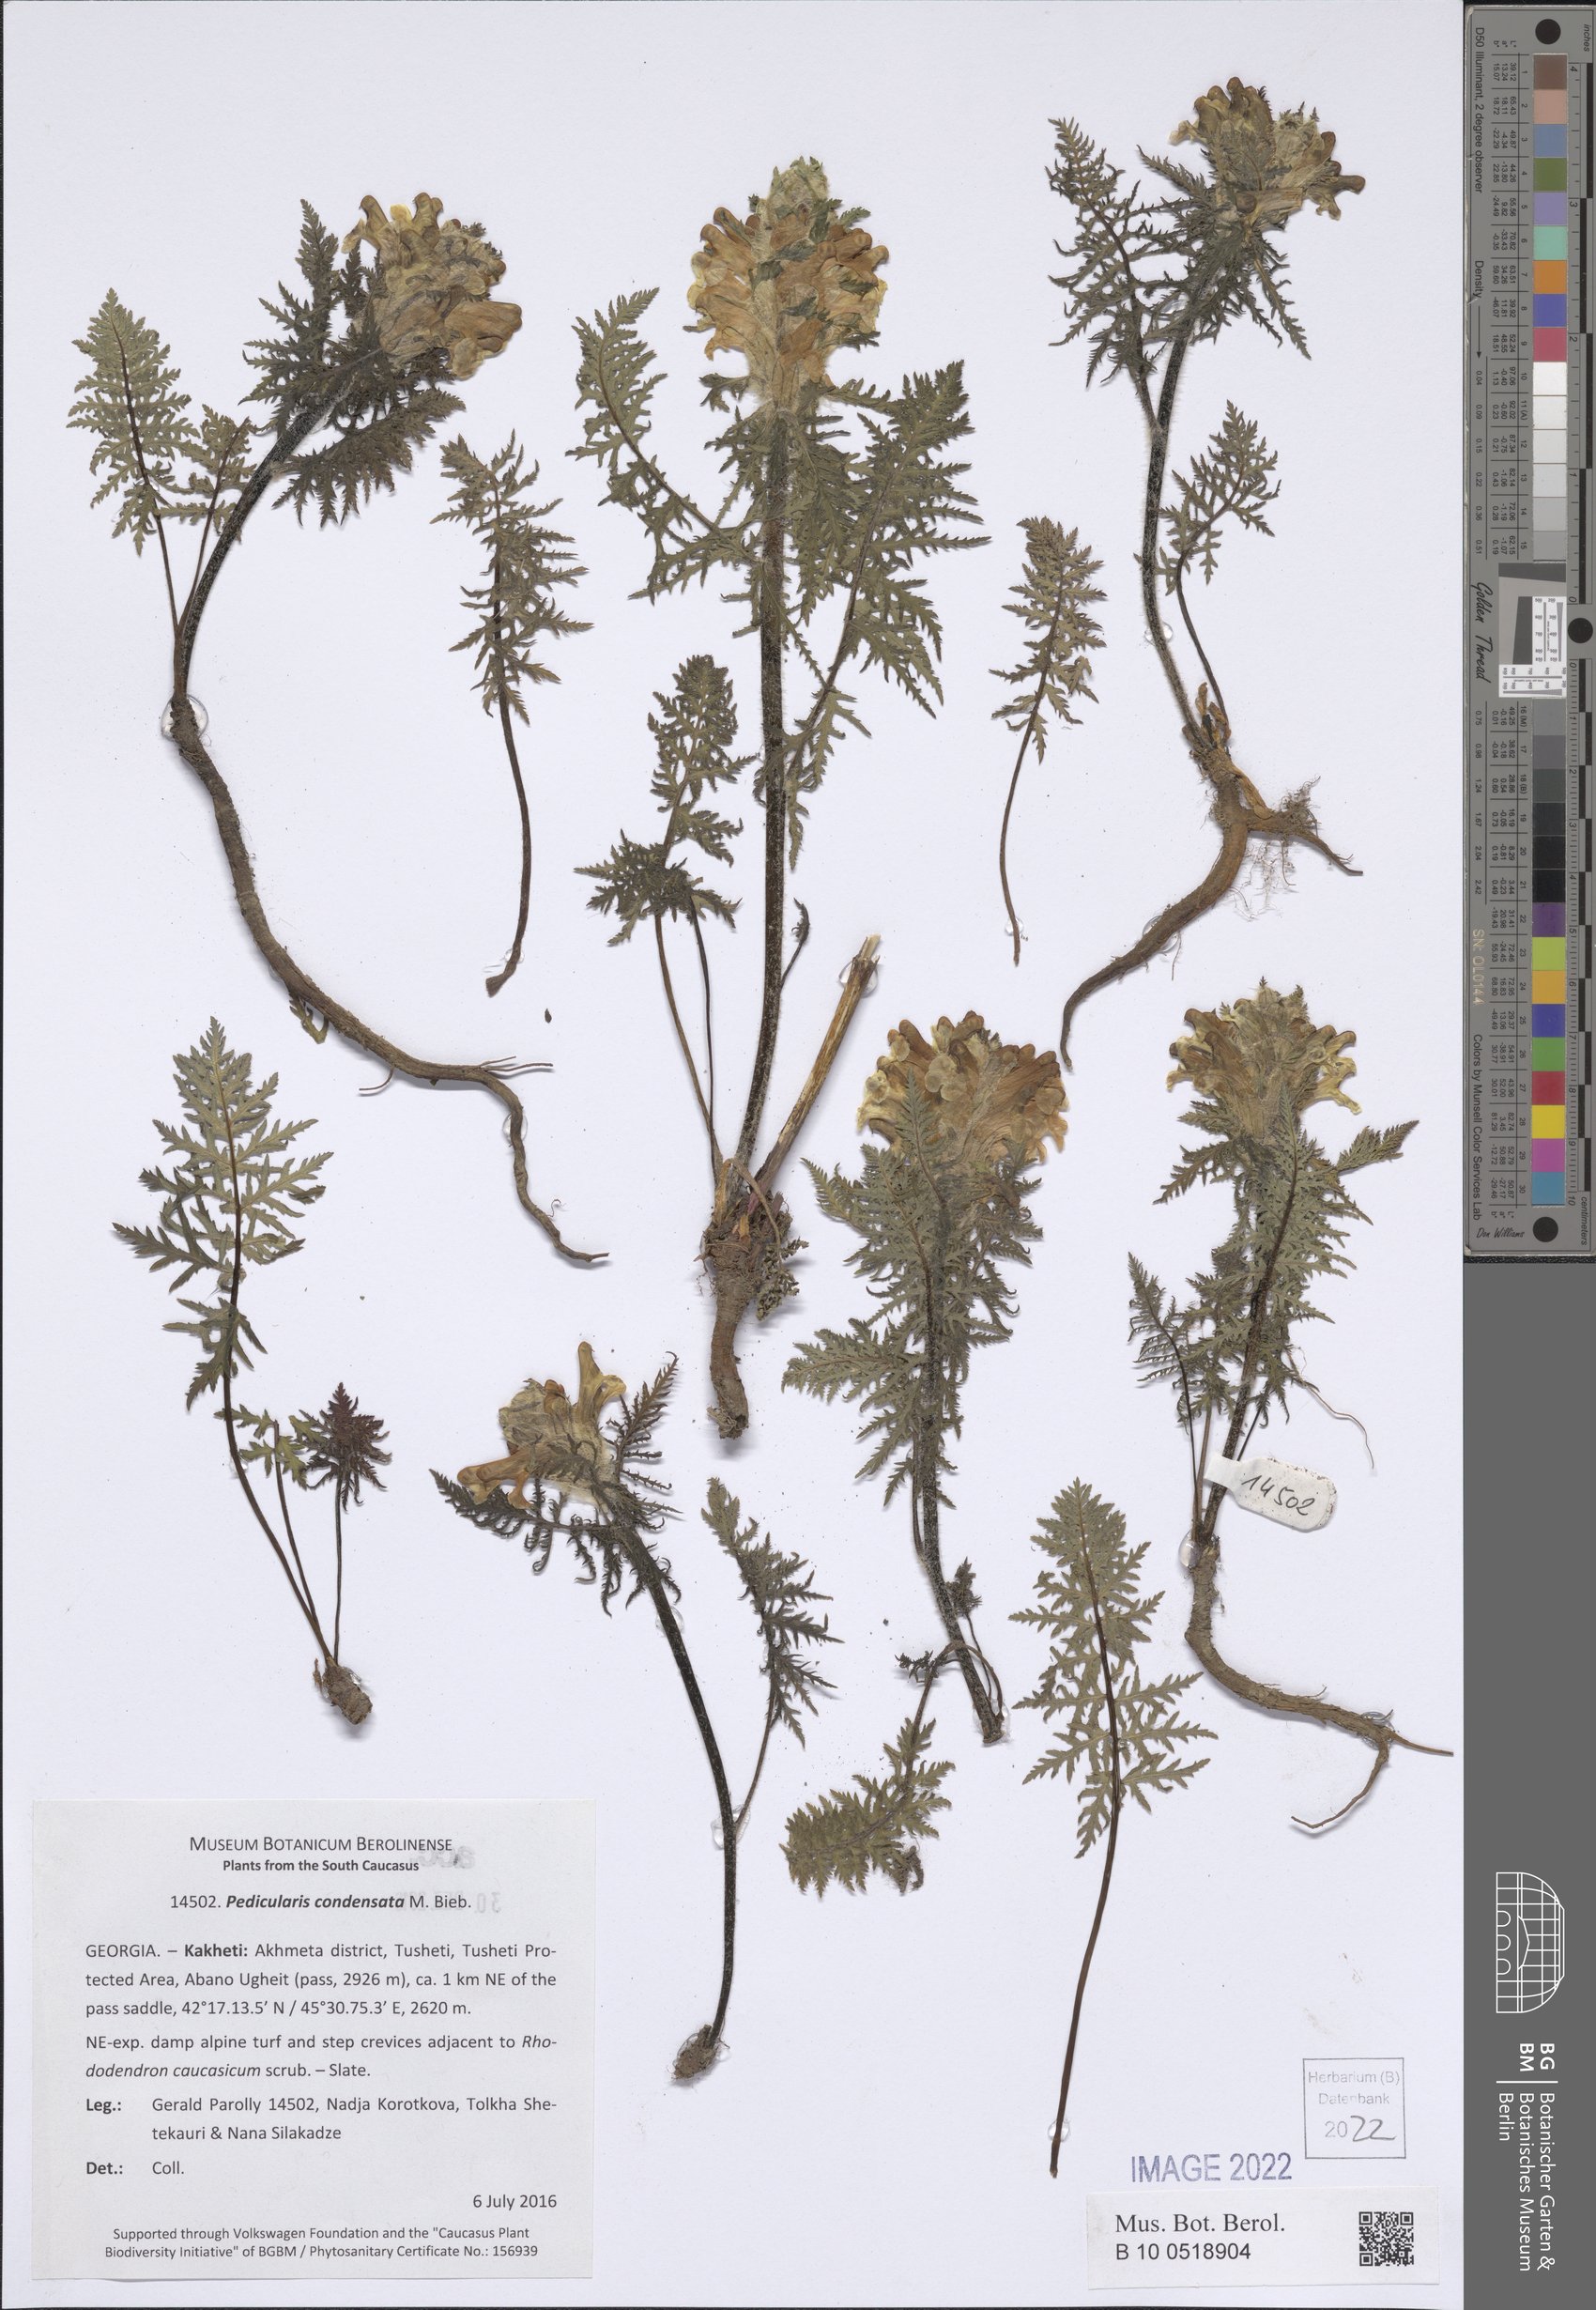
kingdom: Plantae
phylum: Tracheophyta
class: Magnoliopsida
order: Lamiales
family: Orobanchaceae
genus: Pedicularis
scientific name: Pedicularis condensata
